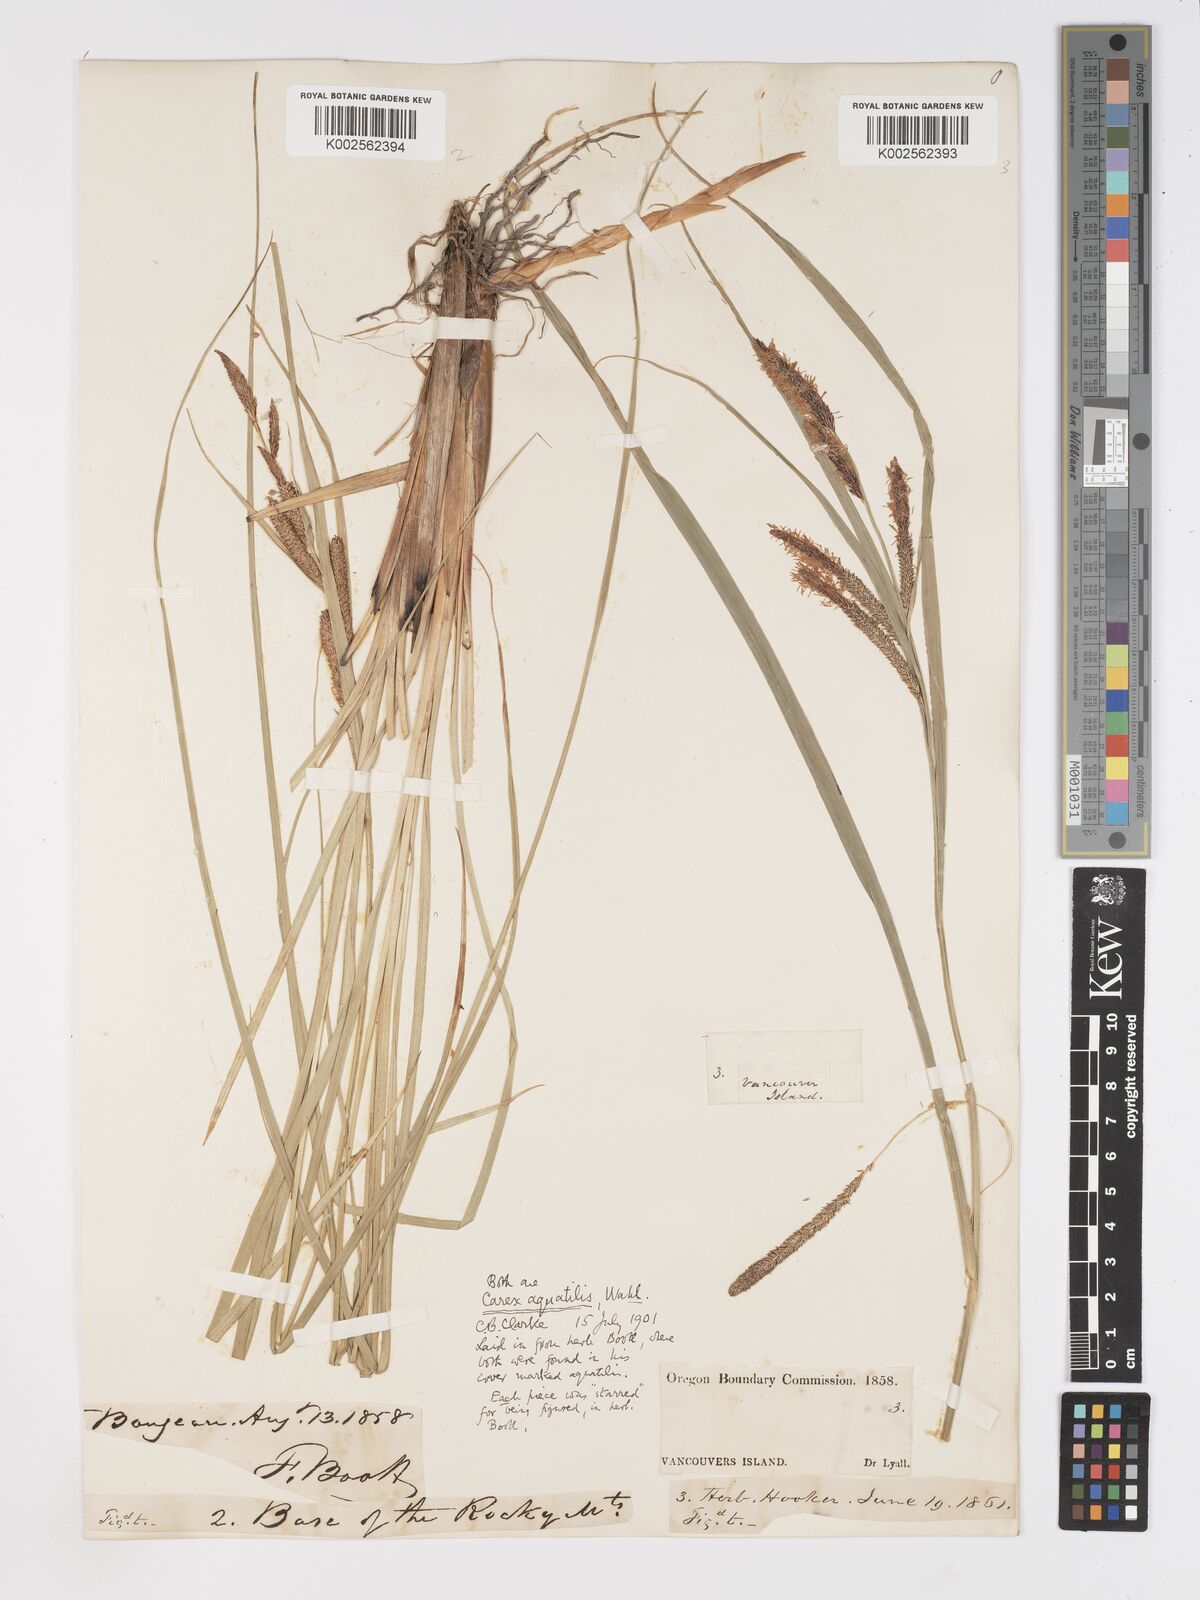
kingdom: Plantae
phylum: Tracheophyta
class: Liliopsida
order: Poales
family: Cyperaceae
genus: Carex
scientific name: Carex aquatilis
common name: Water sedge
